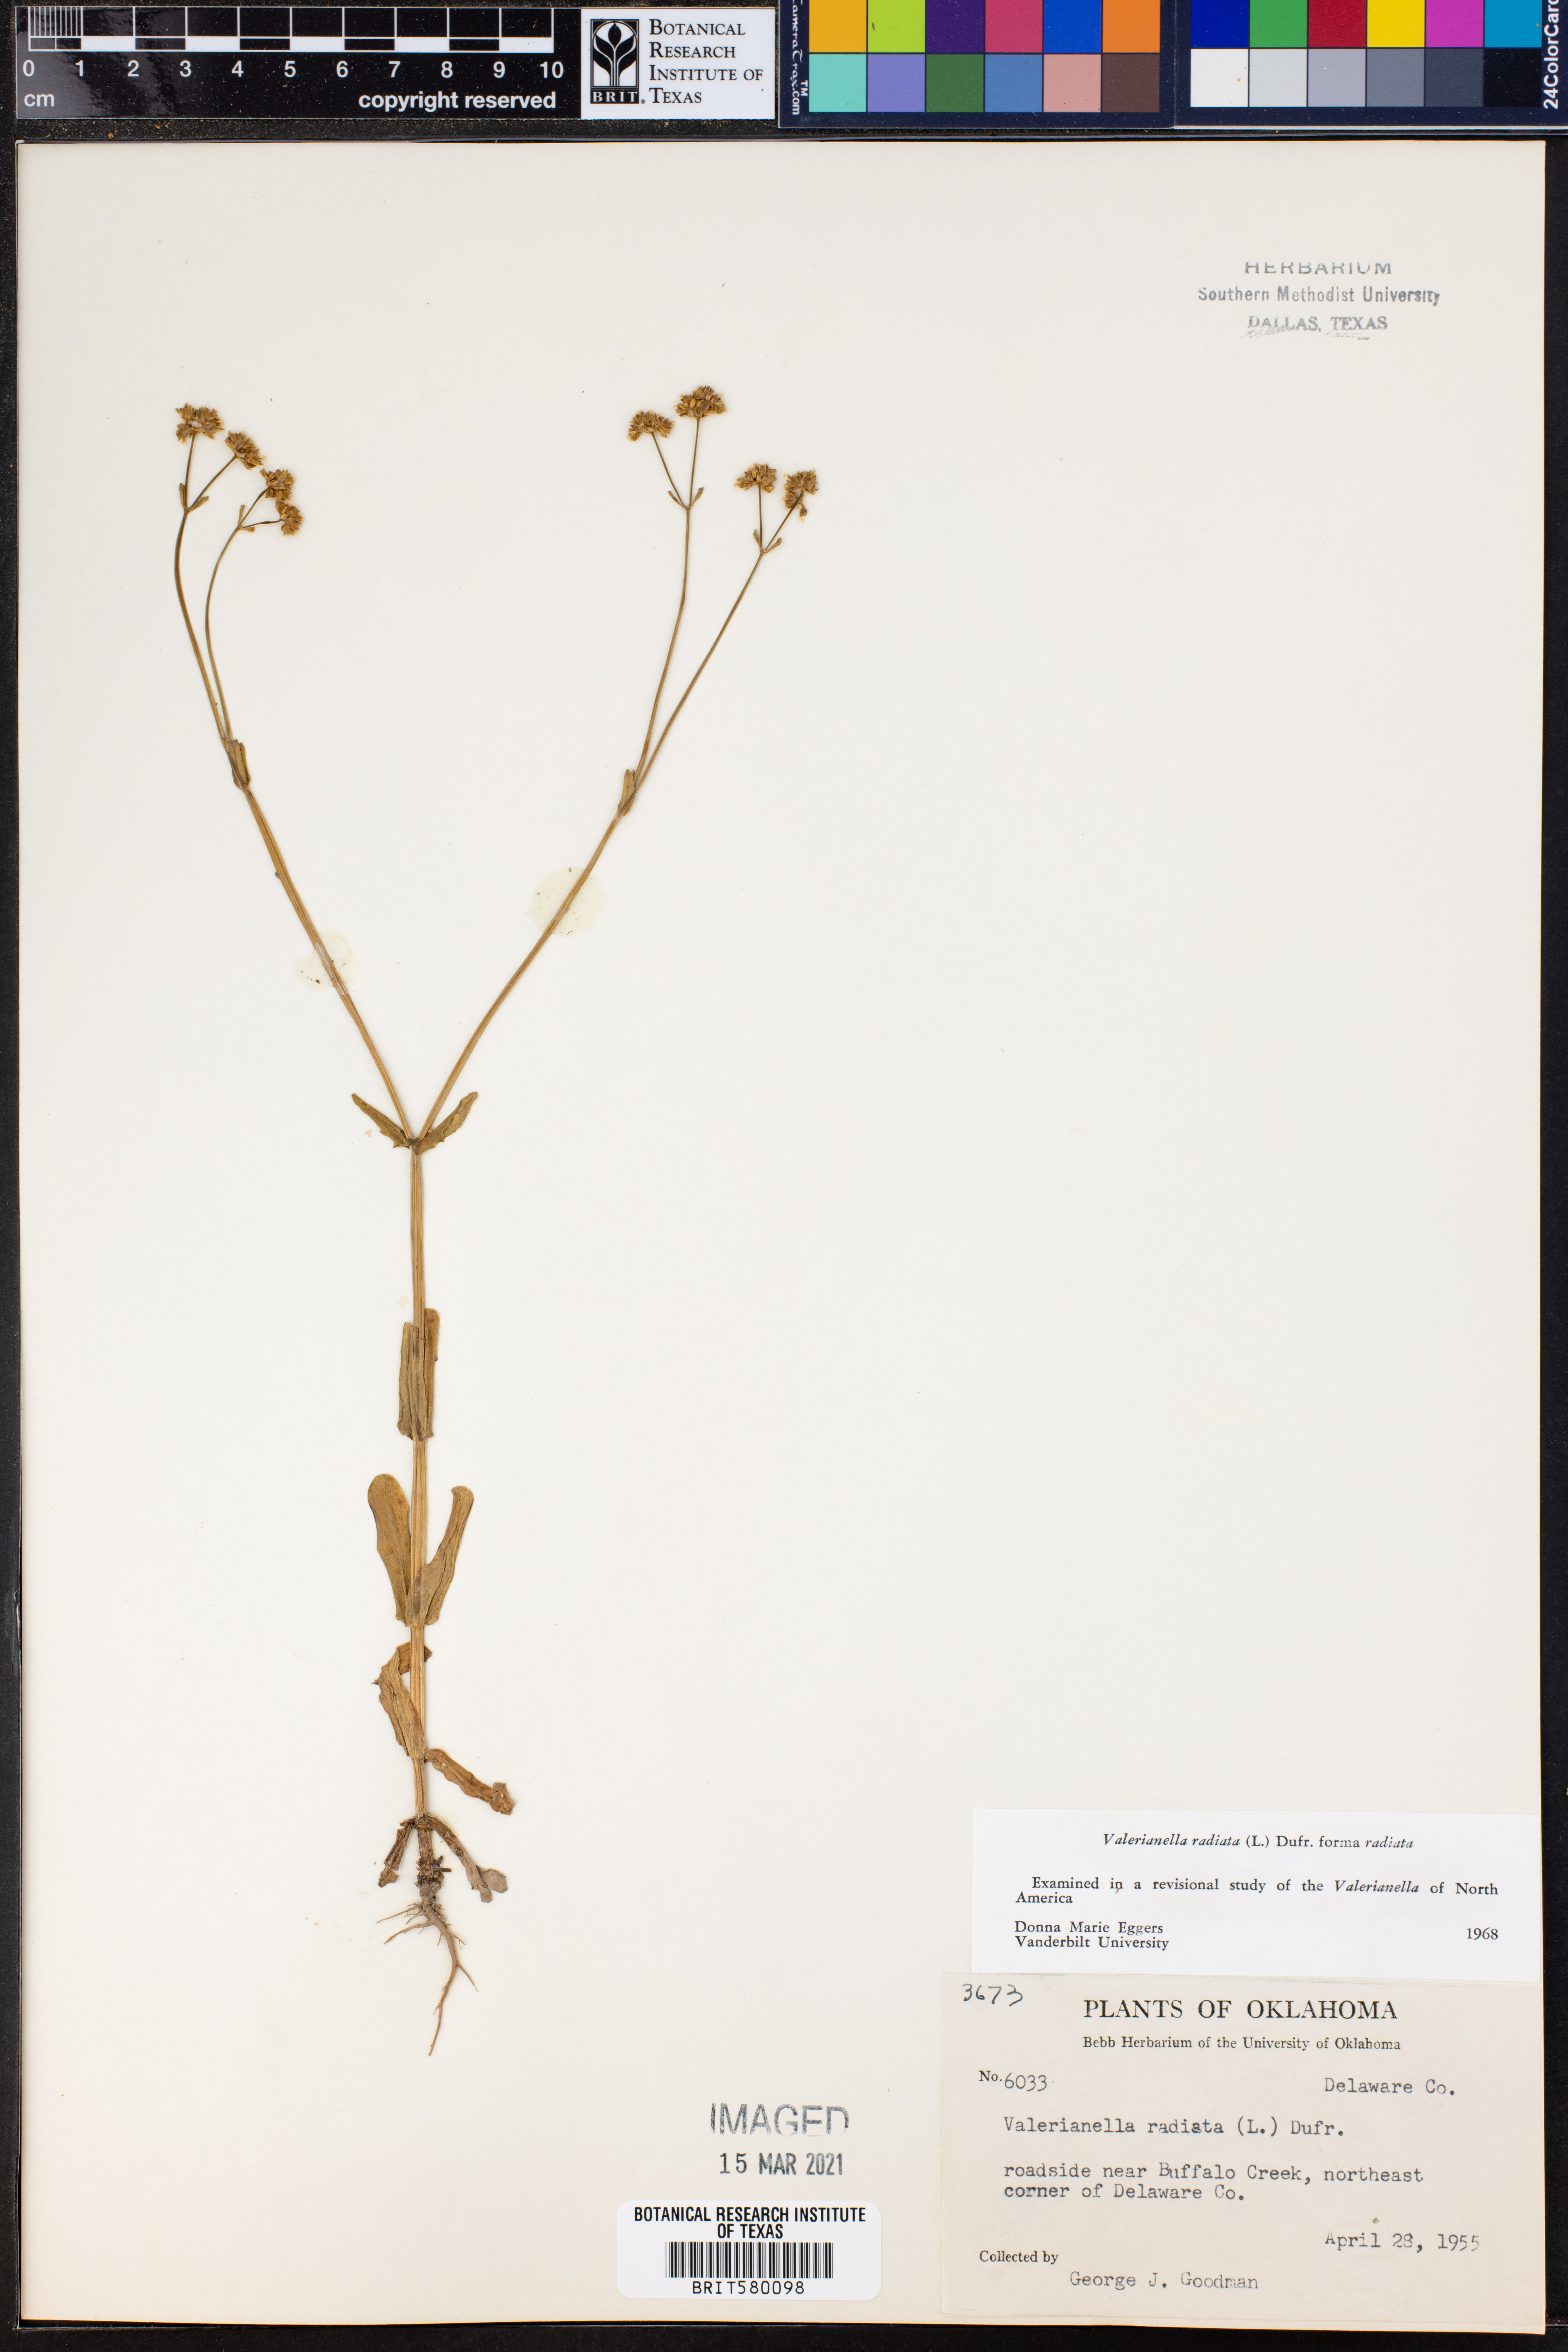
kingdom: Plantae
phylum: Tracheophyta
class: Magnoliopsida
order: Dipsacales
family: Caprifoliaceae
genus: Valerianella
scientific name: Valerianella radiata
